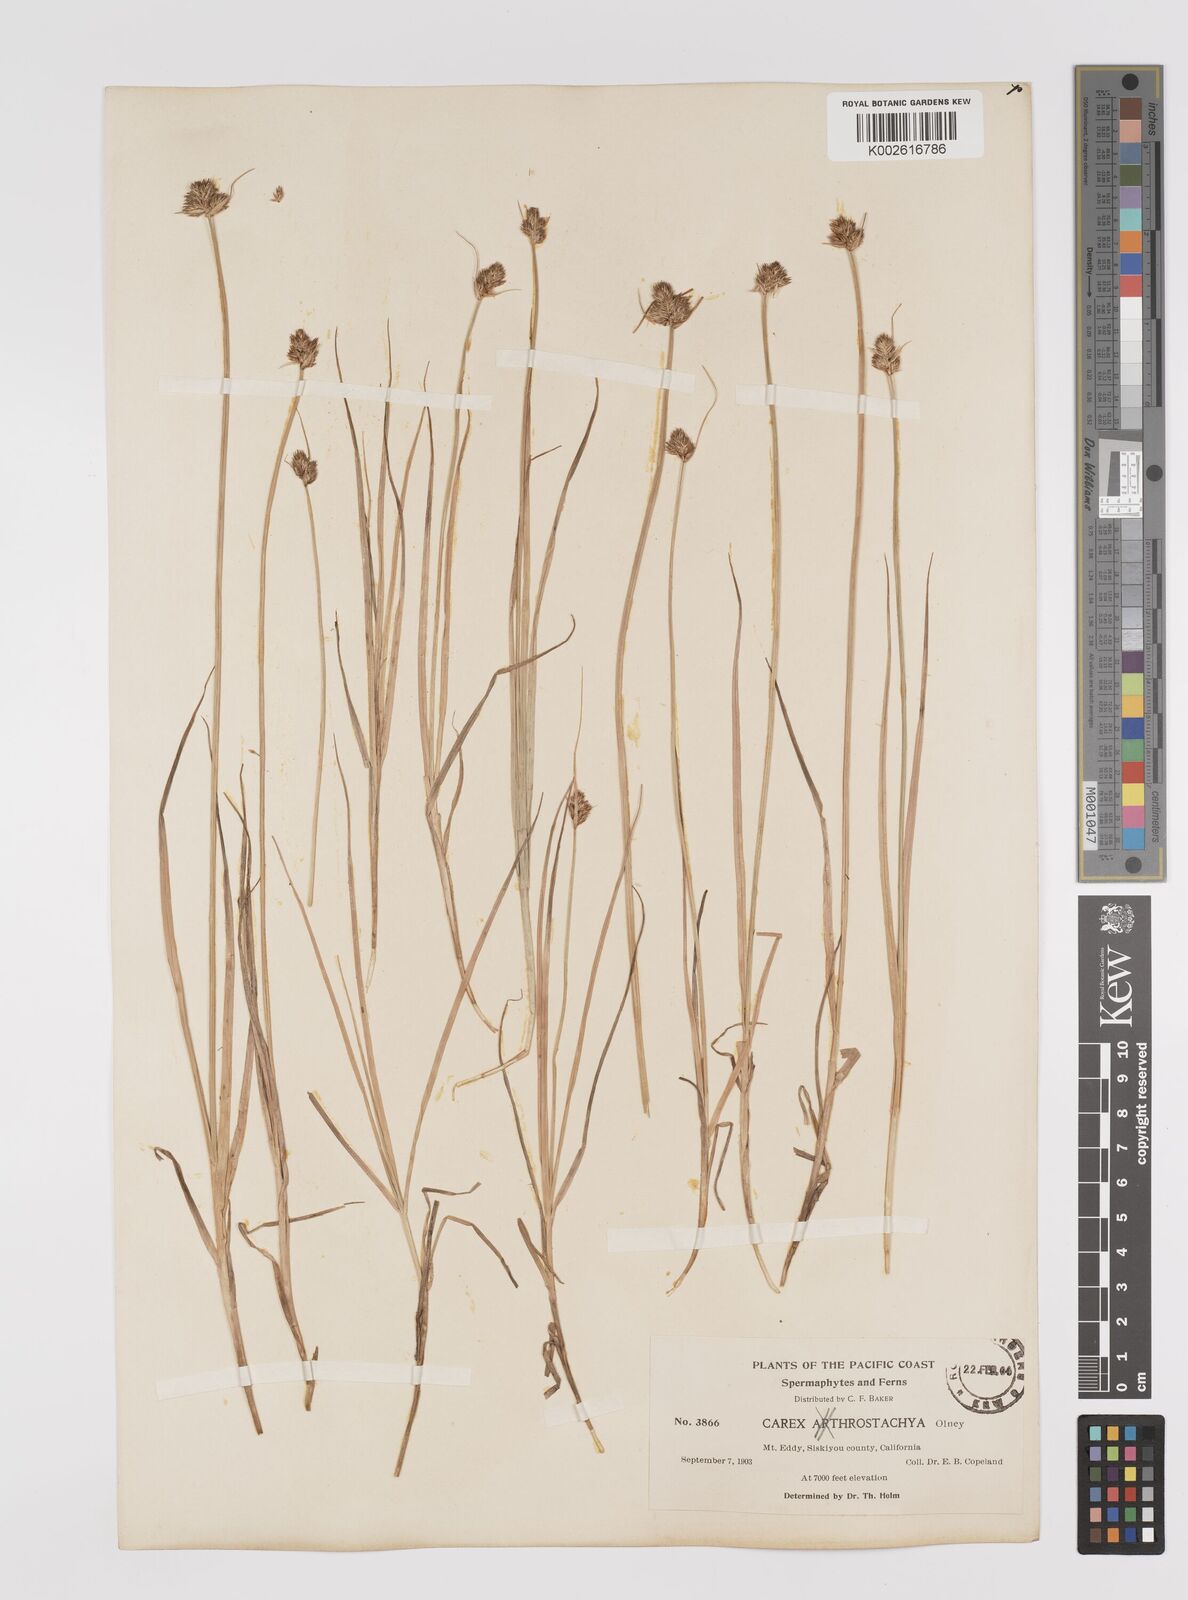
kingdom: Plantae
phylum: Tracheophyta
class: Liliopsida
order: Poales
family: Cyperaceae
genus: Carex
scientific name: Carex athrostachya
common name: Slenderbeak sedge
